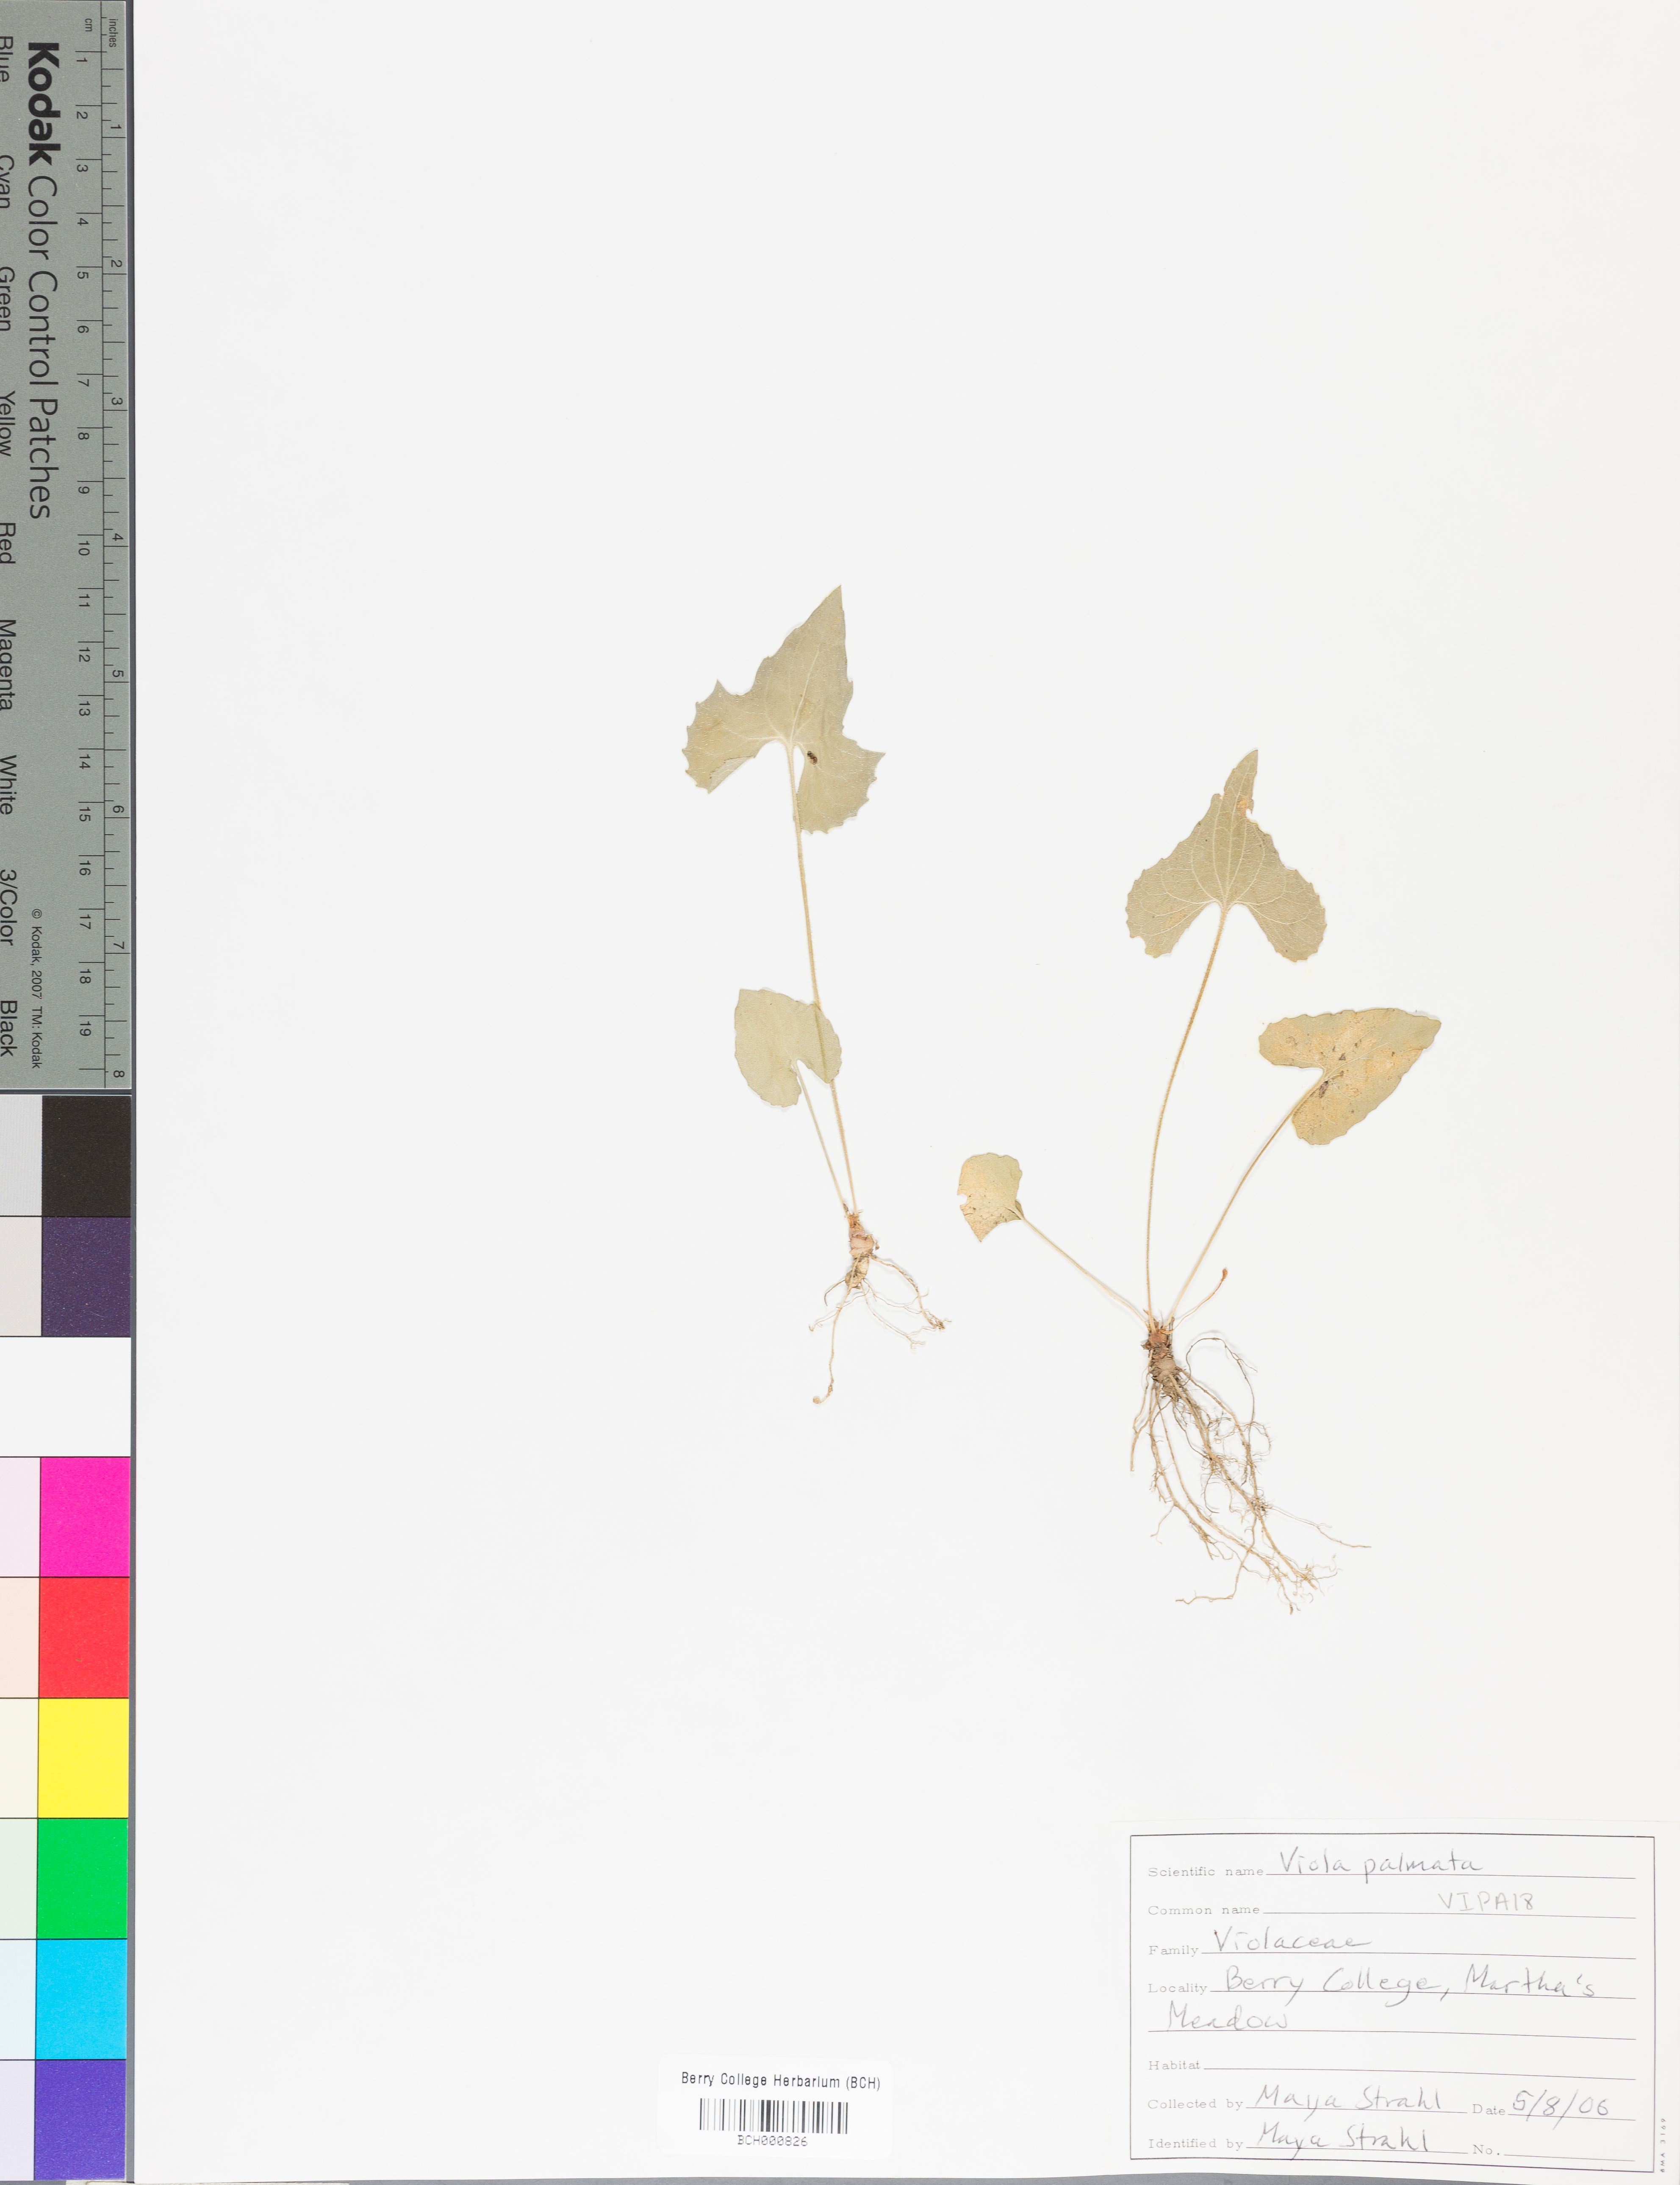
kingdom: Plantae
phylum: Tracheophyta
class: Magnoliopsida
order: Malpighiales
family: Violaceae
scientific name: Violaceae
